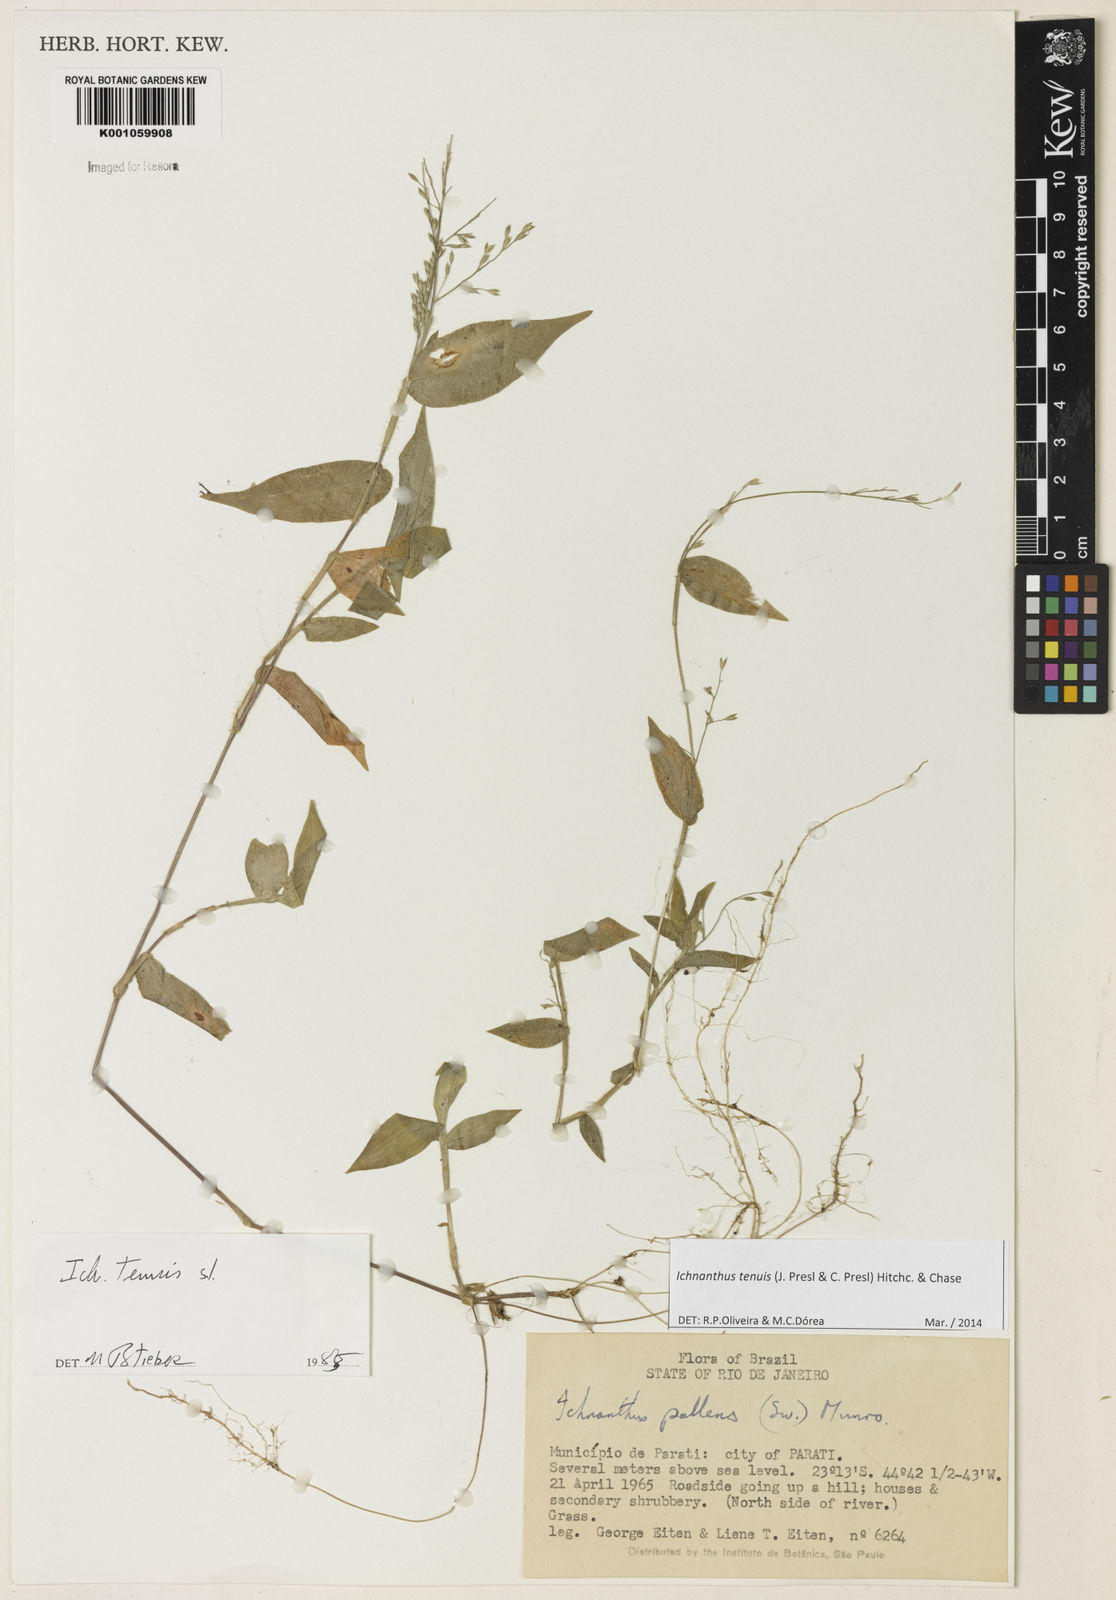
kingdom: Plantae
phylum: Tracheophyta
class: Liliopsida
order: Poales
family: Poaceae
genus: Ichnanthus
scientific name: Ichnanthus tenuis
